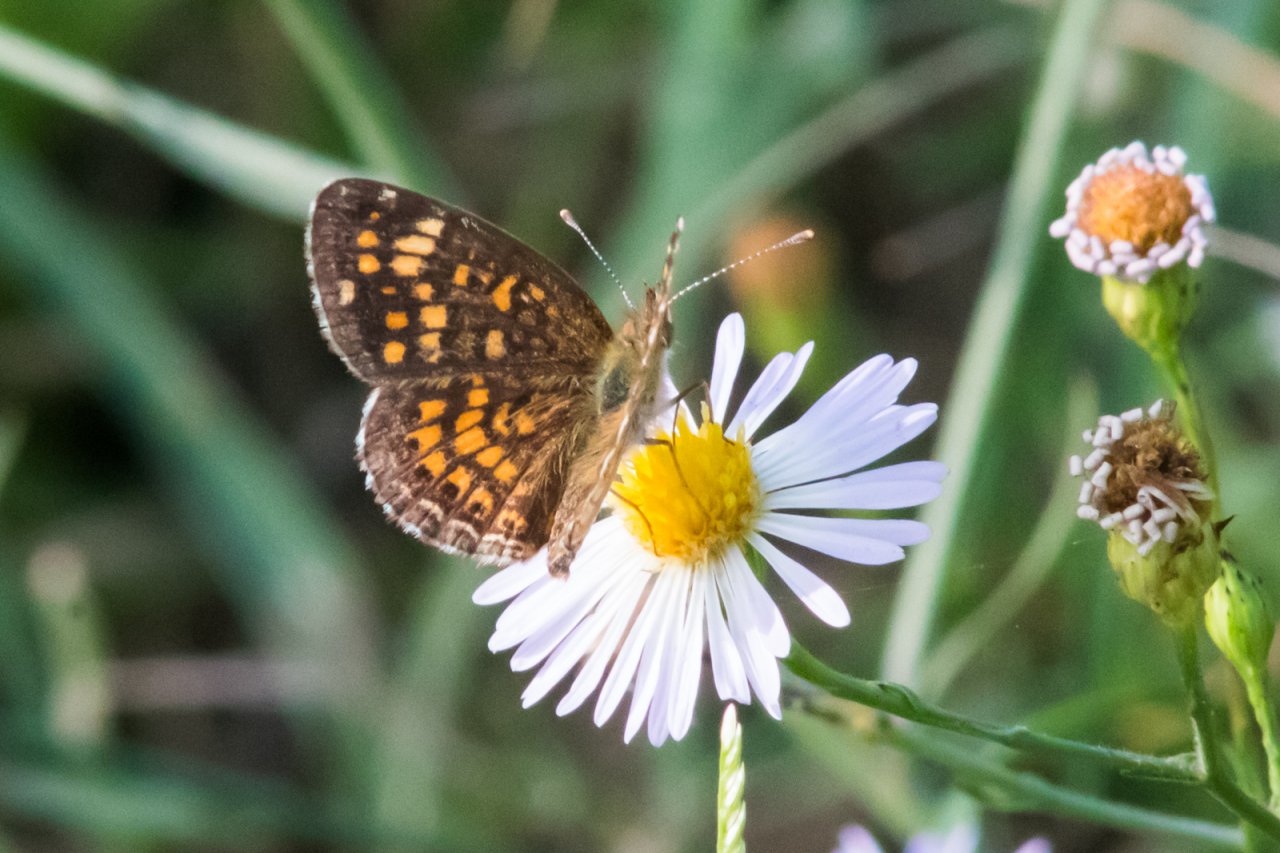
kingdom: Animalia
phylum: Arthropoda
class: Insecta
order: Lepidoptera
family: Nymphalidae
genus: Phyciodes
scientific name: Phyciodes vesta
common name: Vesta Crescent
